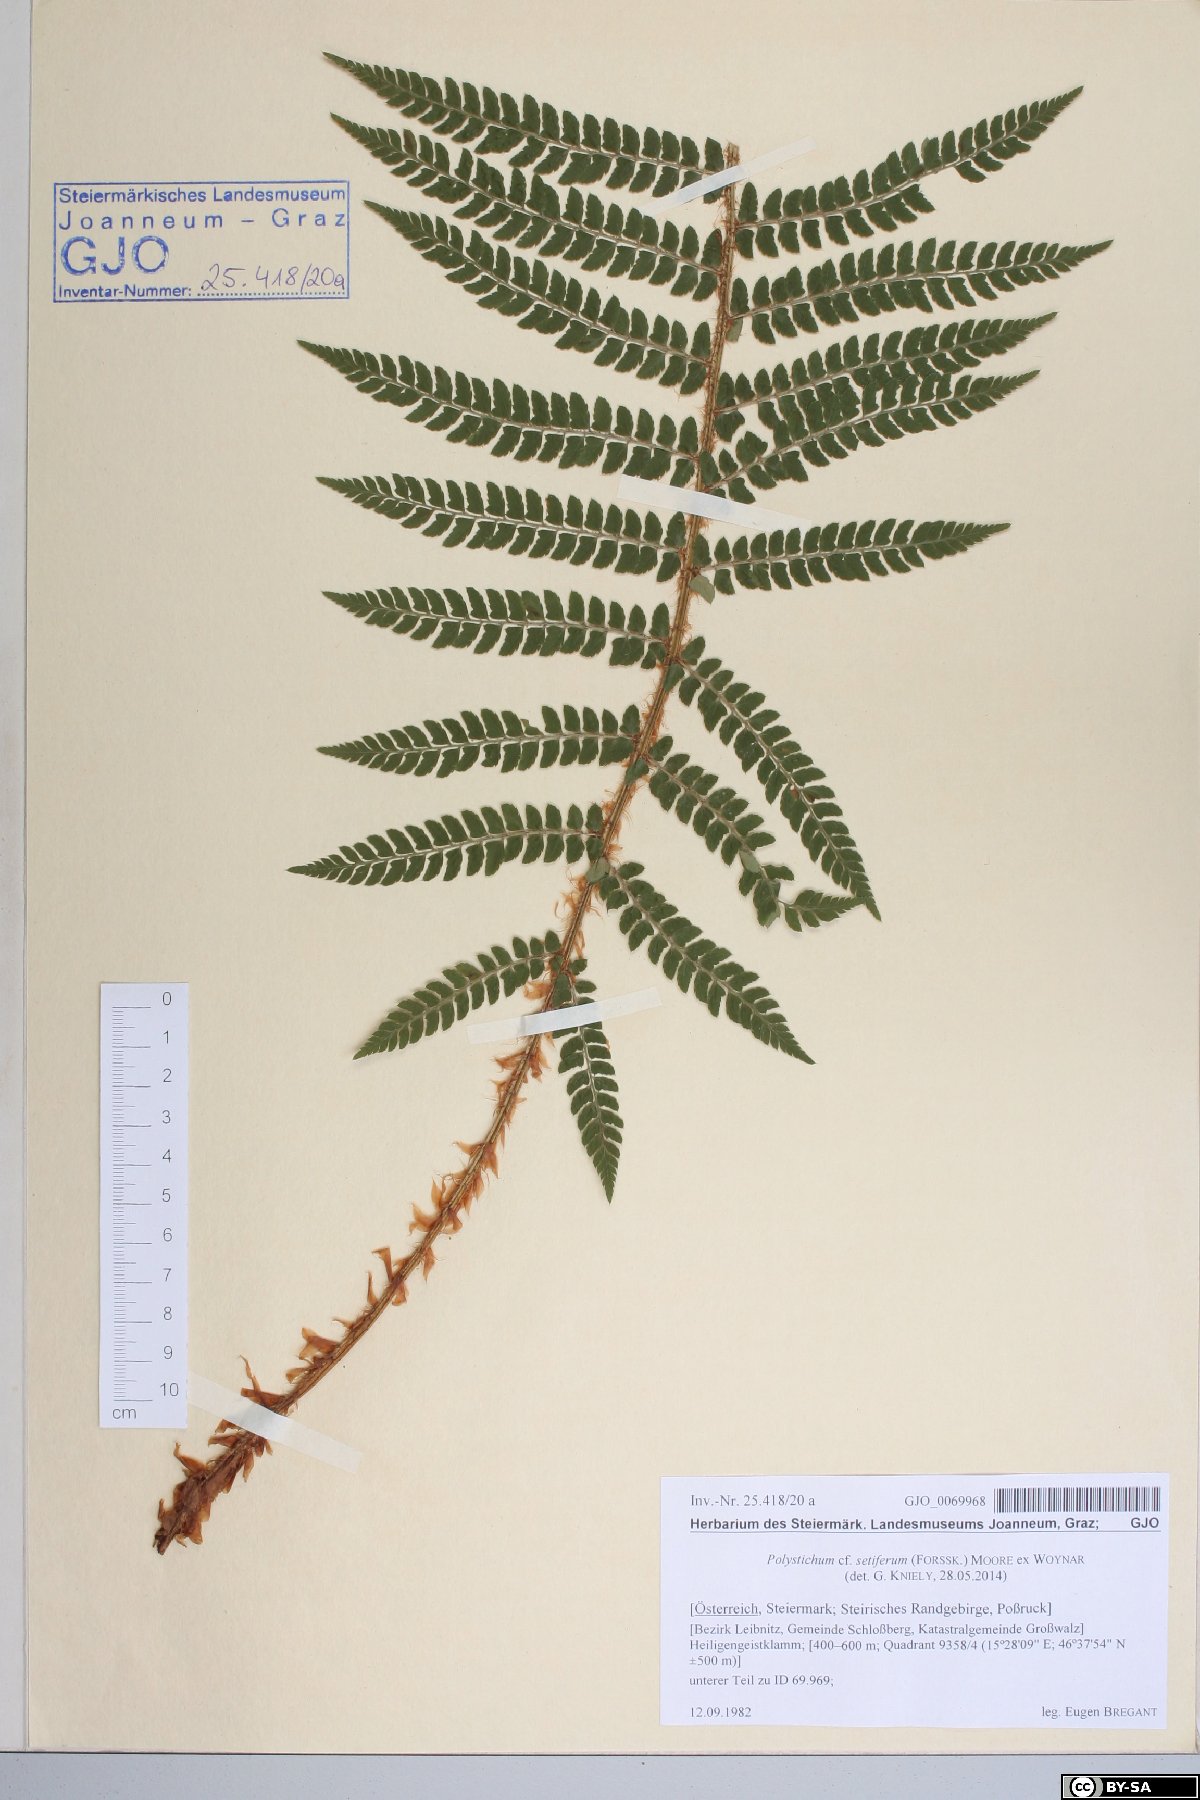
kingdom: Plantae
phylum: Tracheophyta
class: Polypodiopsida
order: Polypodiales
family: Dryopteridaceae
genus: Polystichum
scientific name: Polystichum setiferum
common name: Soft shield-fern
